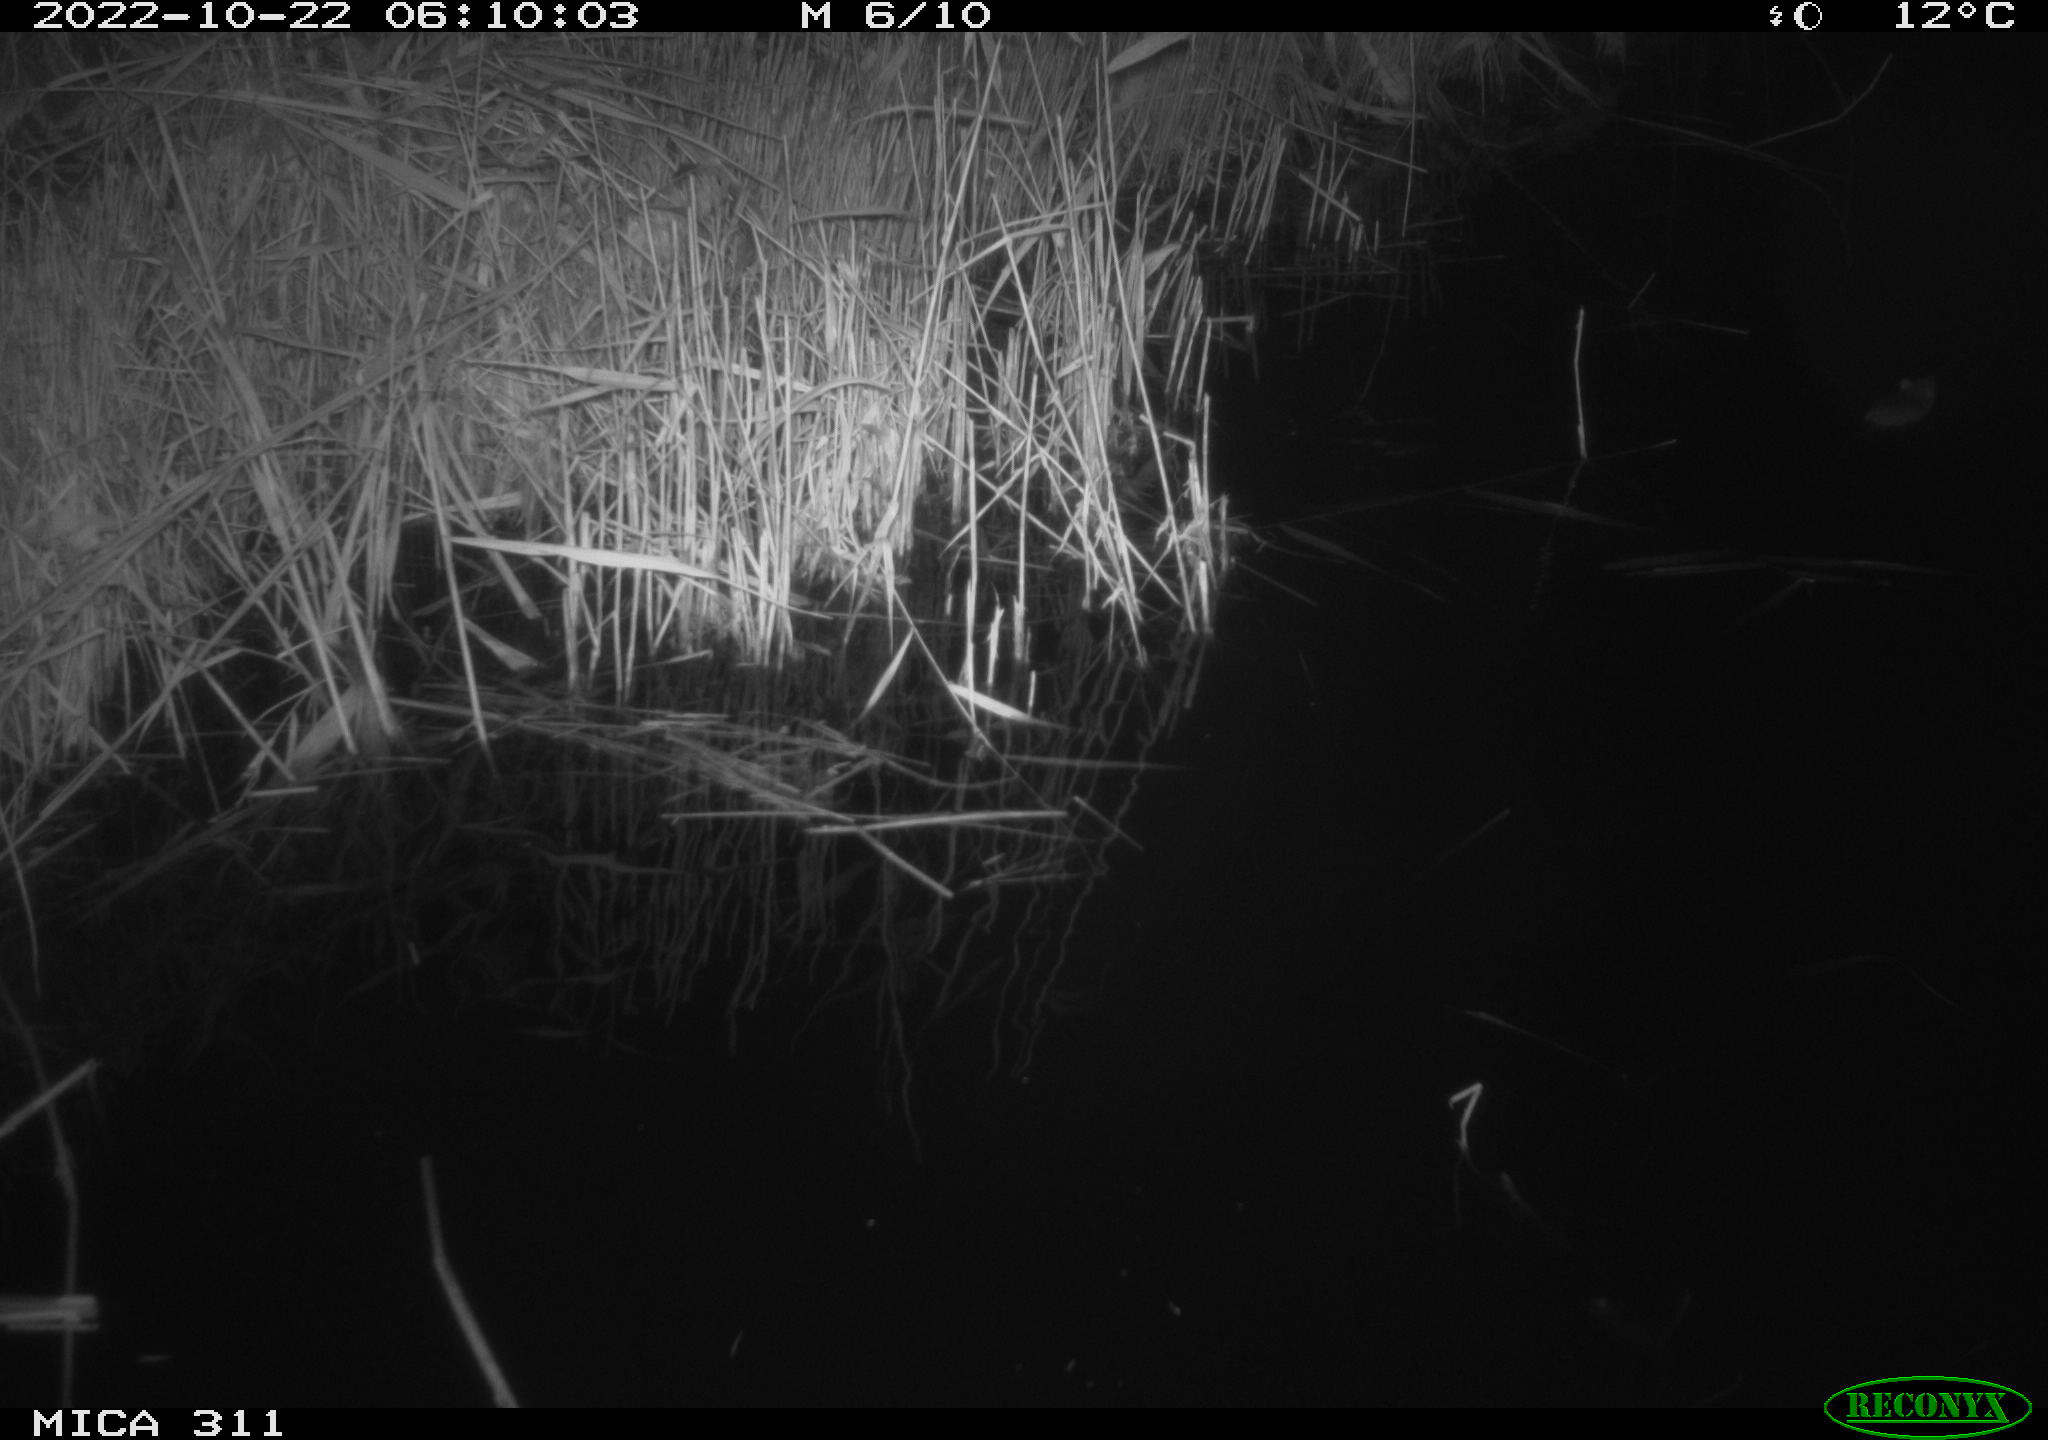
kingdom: Animalia
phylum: Chordata
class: Mammalia
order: Rodentia
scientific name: Rodentia
